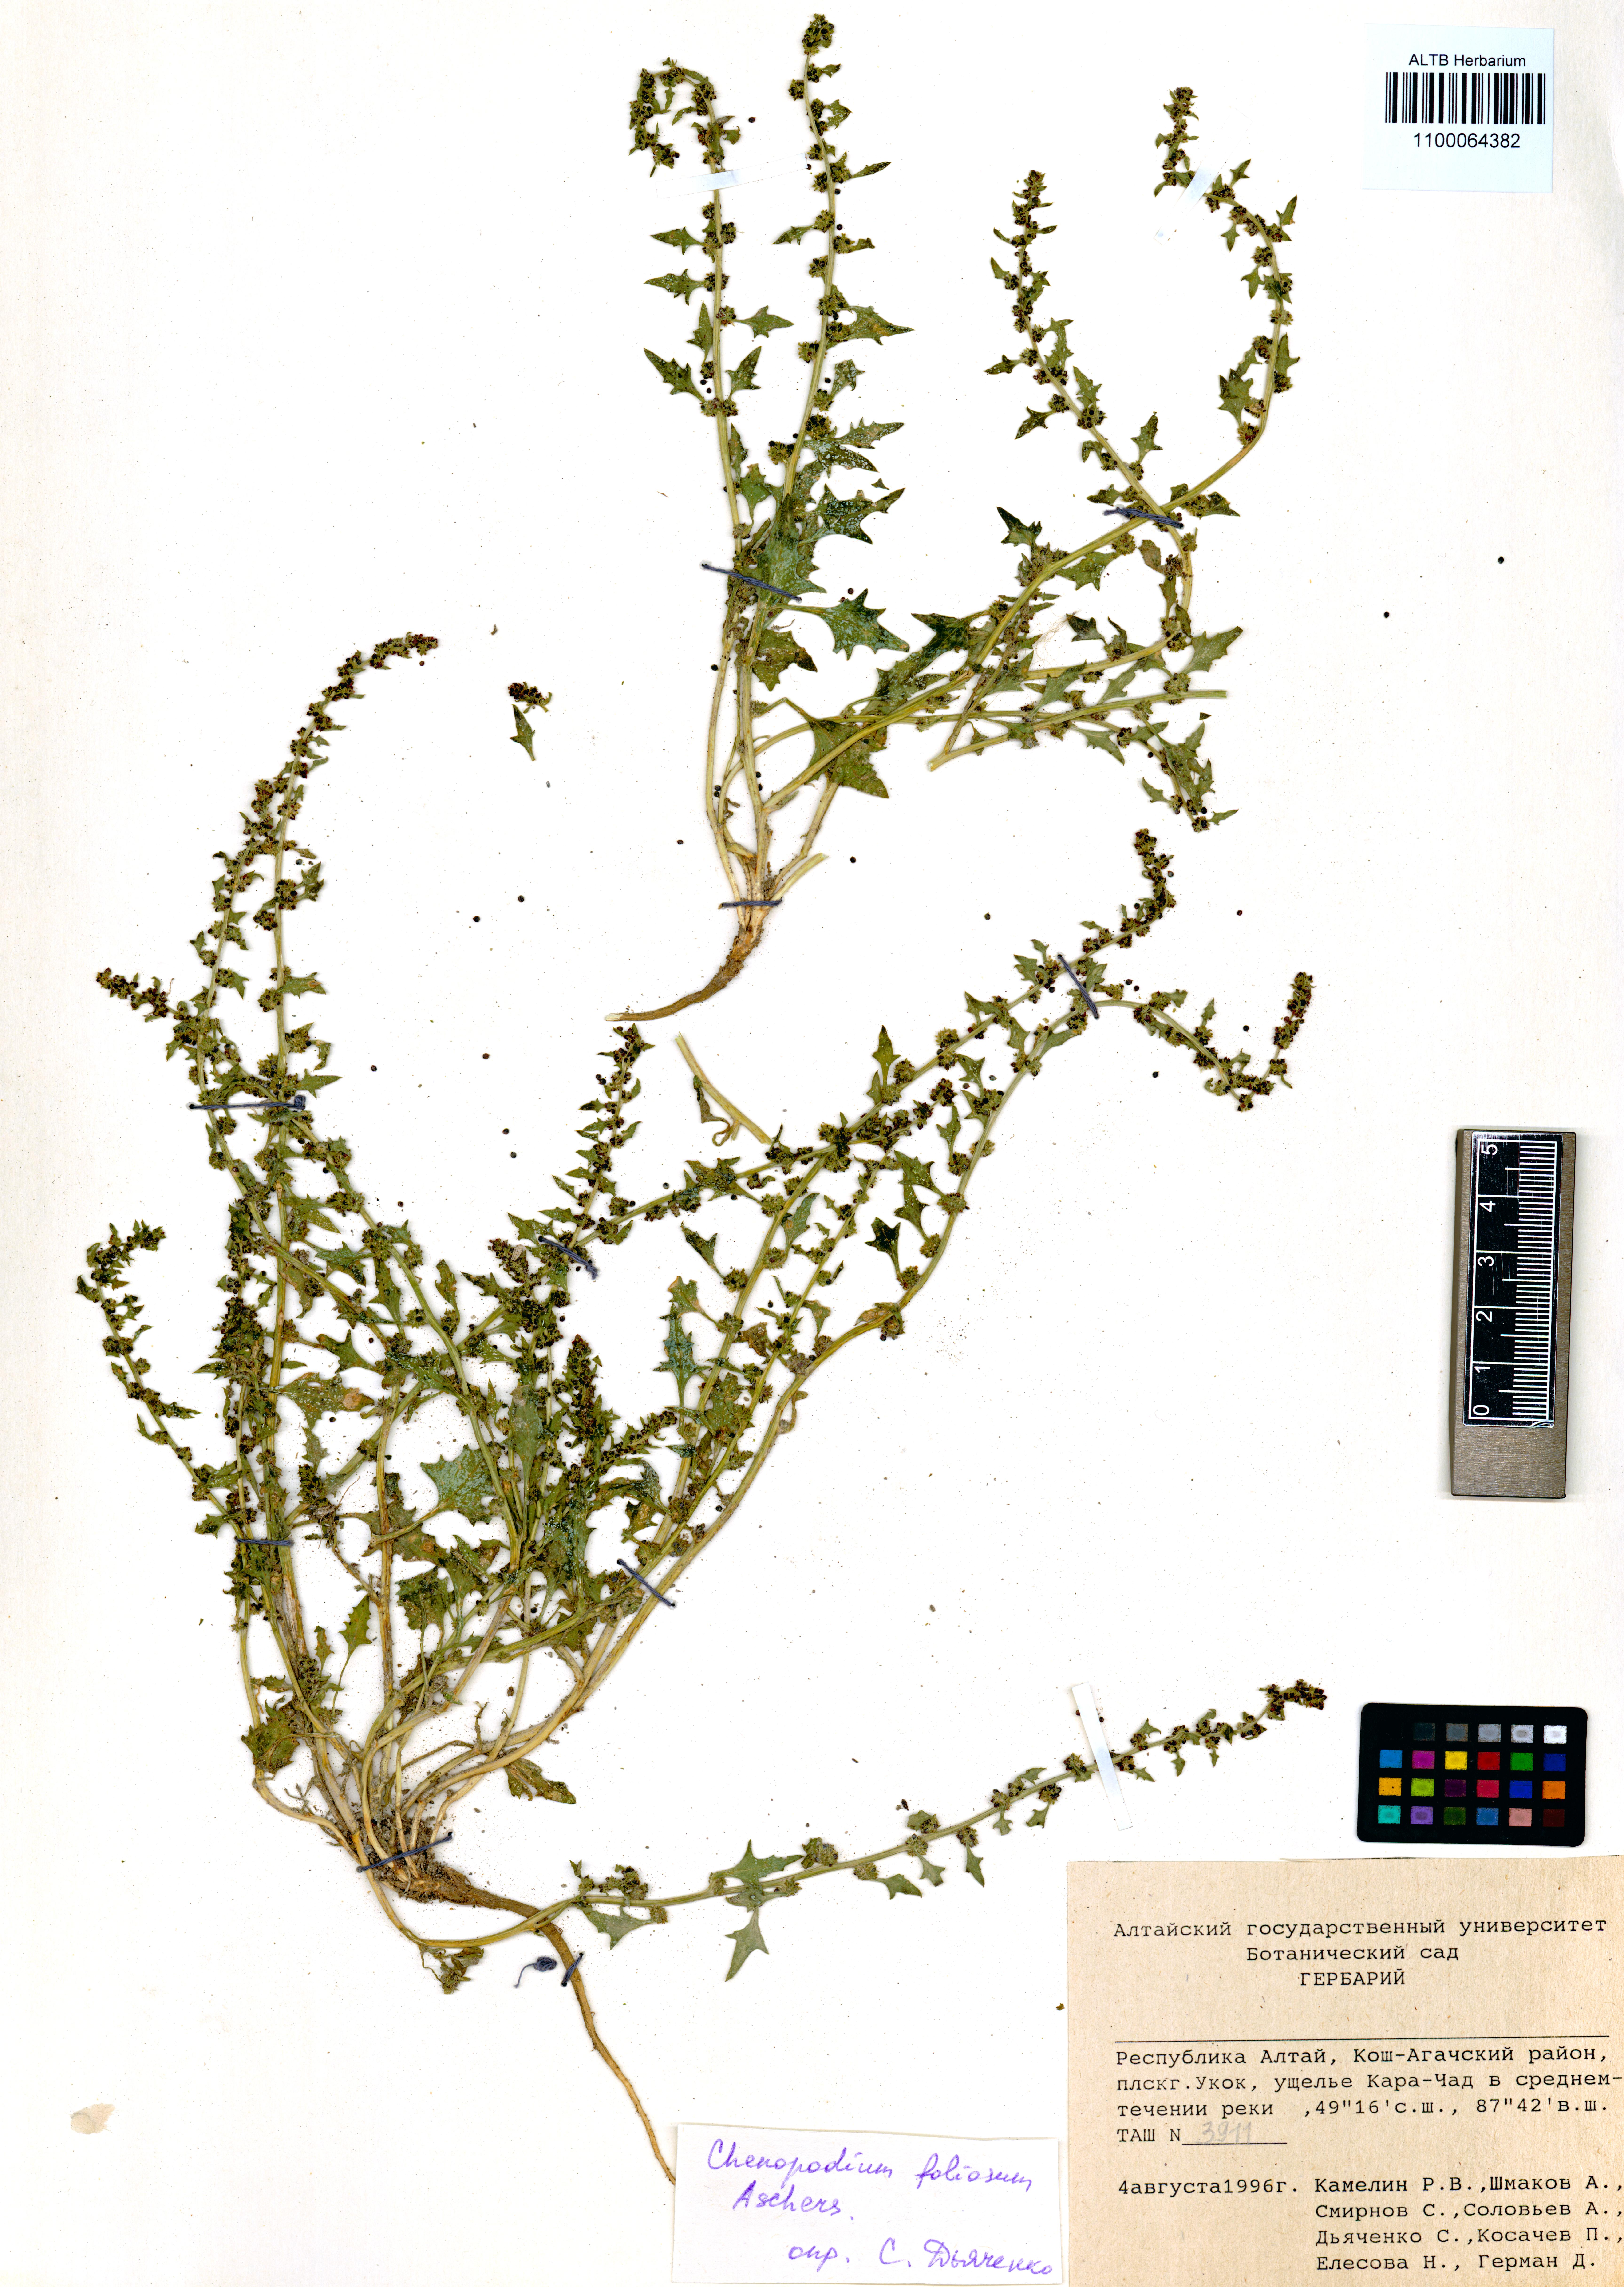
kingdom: Plantae
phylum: Tracheophyta
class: Magnoliopsida
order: Caryophyllales
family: Amaranthaceae
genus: Kalidium
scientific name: Kalidium foliatum
